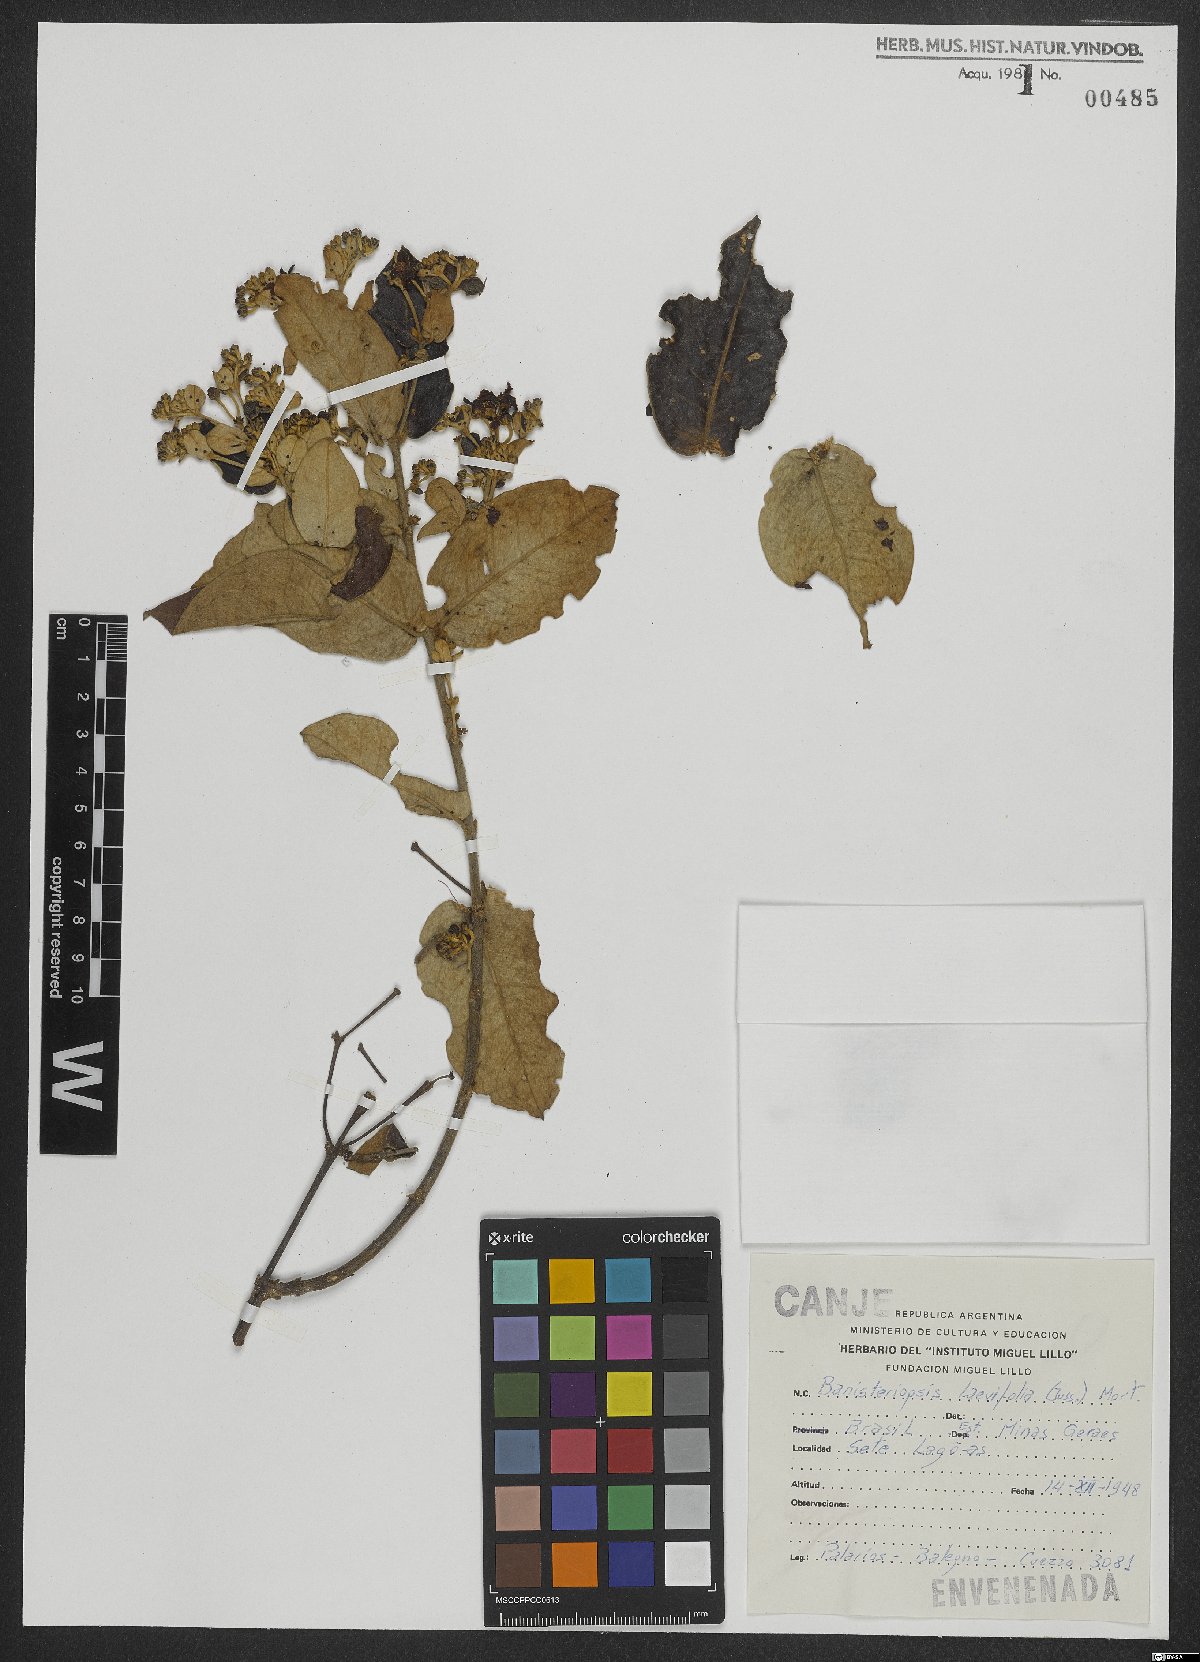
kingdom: Plantae
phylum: Tracheophyta
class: Magnoliopsida
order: Malpighiales
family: Malpighiaceae
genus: Banisteriopsis
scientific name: Banisteriopsis laevifolia
